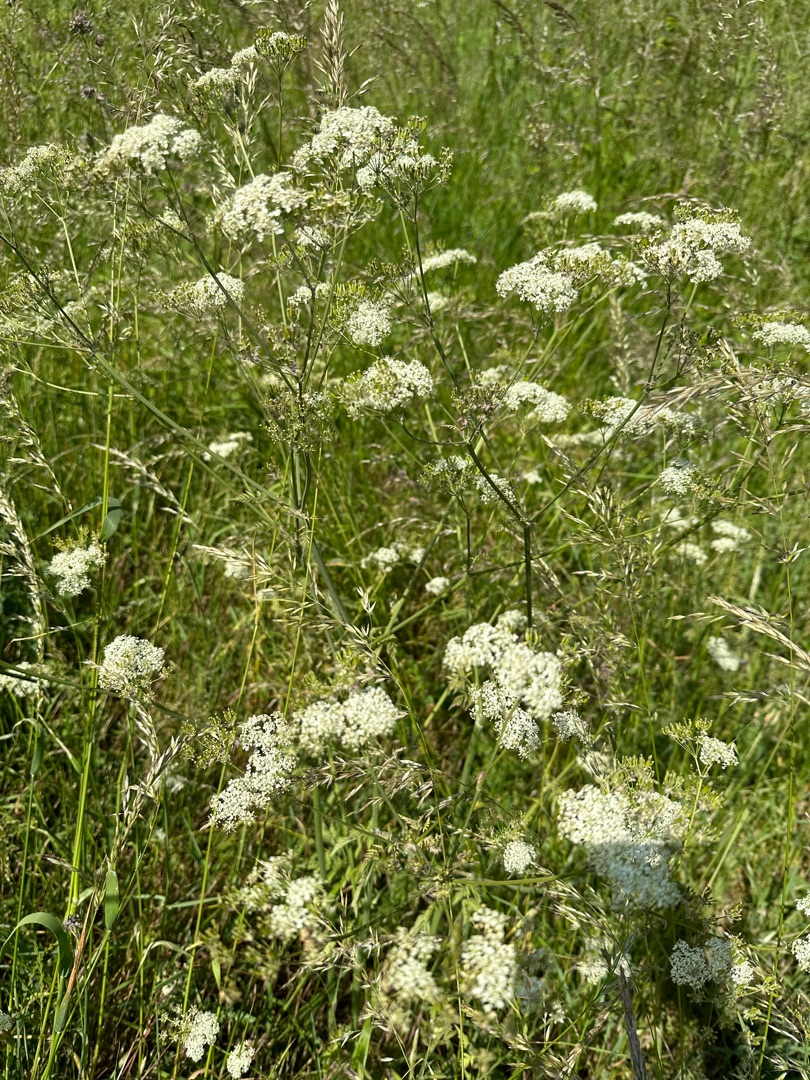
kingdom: Plantae
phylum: Tracheophyta
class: Magnoliopsida
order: Apiales
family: Apiaceae
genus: Anthriscus
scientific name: Anthriscus sylvestris
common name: Vild kørvel
